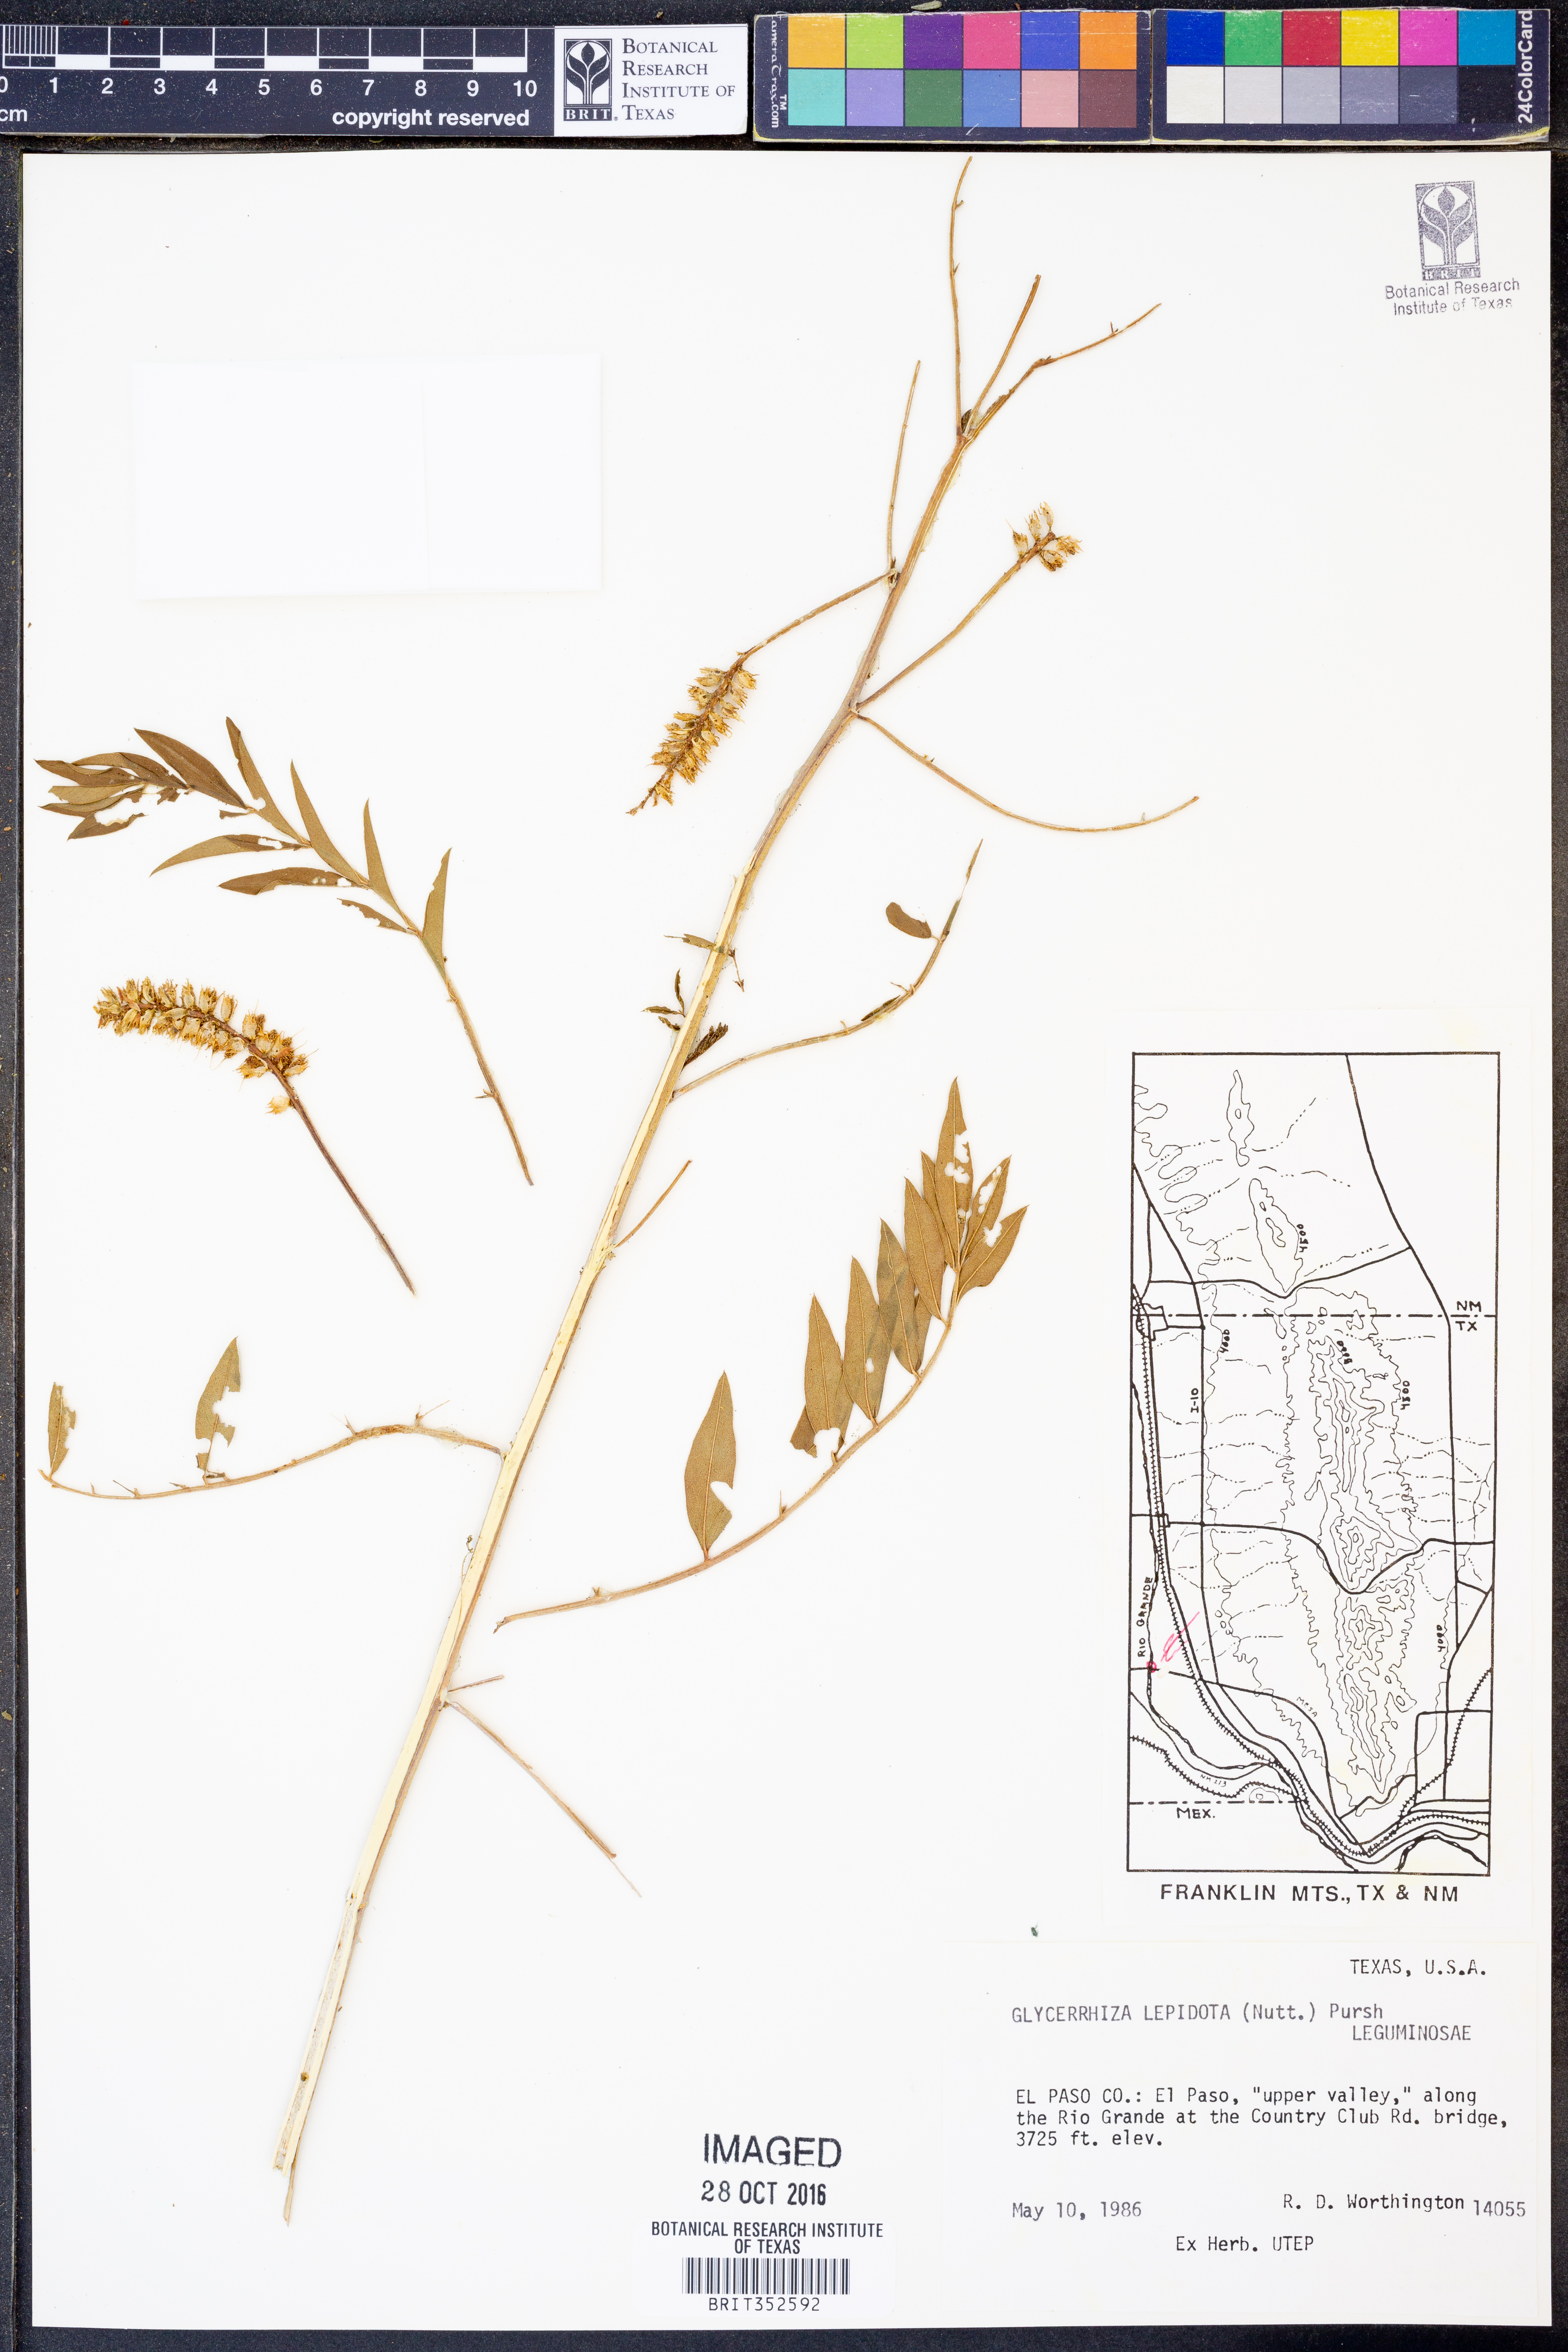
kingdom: Plantae
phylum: Tracheophyta
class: Magnoliopsida
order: Fabales
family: Fabaceae
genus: Glycyrrhiza
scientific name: Glycyrrhiza lepidota
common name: American liquorice
